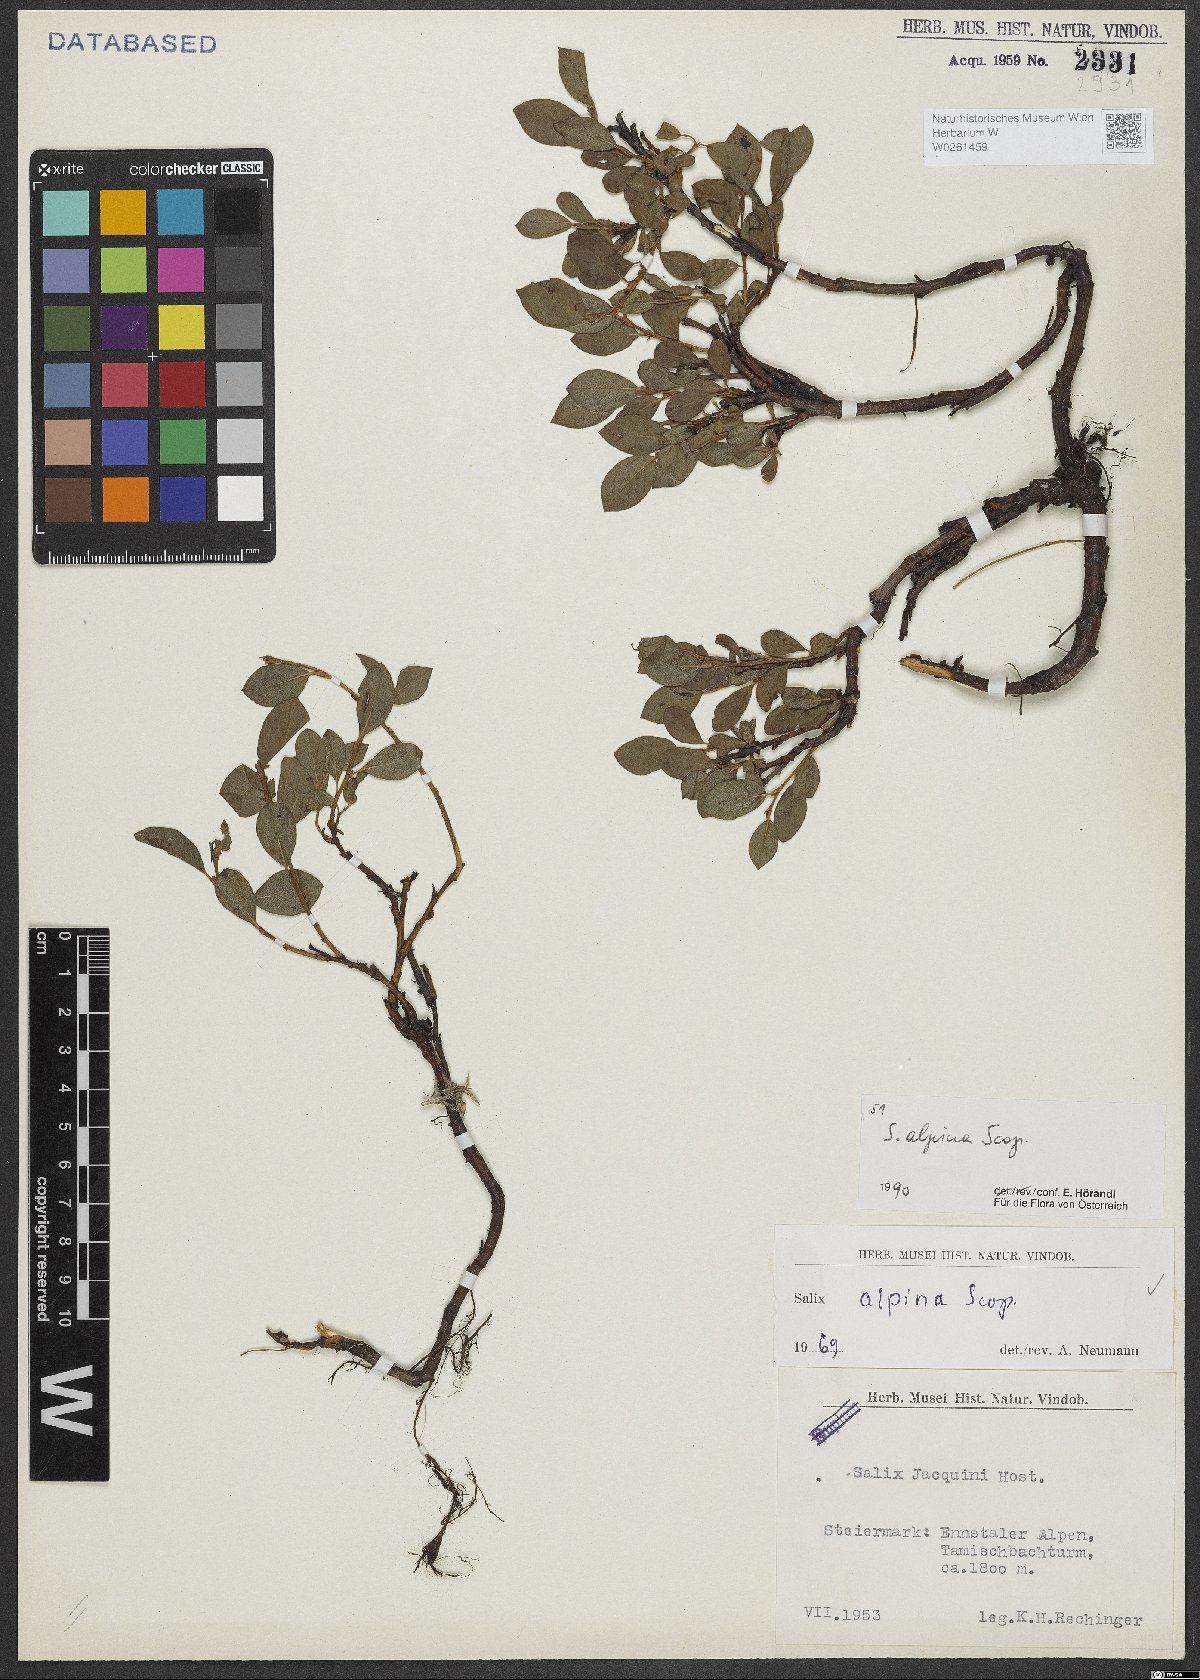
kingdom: Plantae
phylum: Tracheophyta
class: Magnoliopsida
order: Malpighiales
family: Salicaceae
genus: Salix
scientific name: Salix alpina
